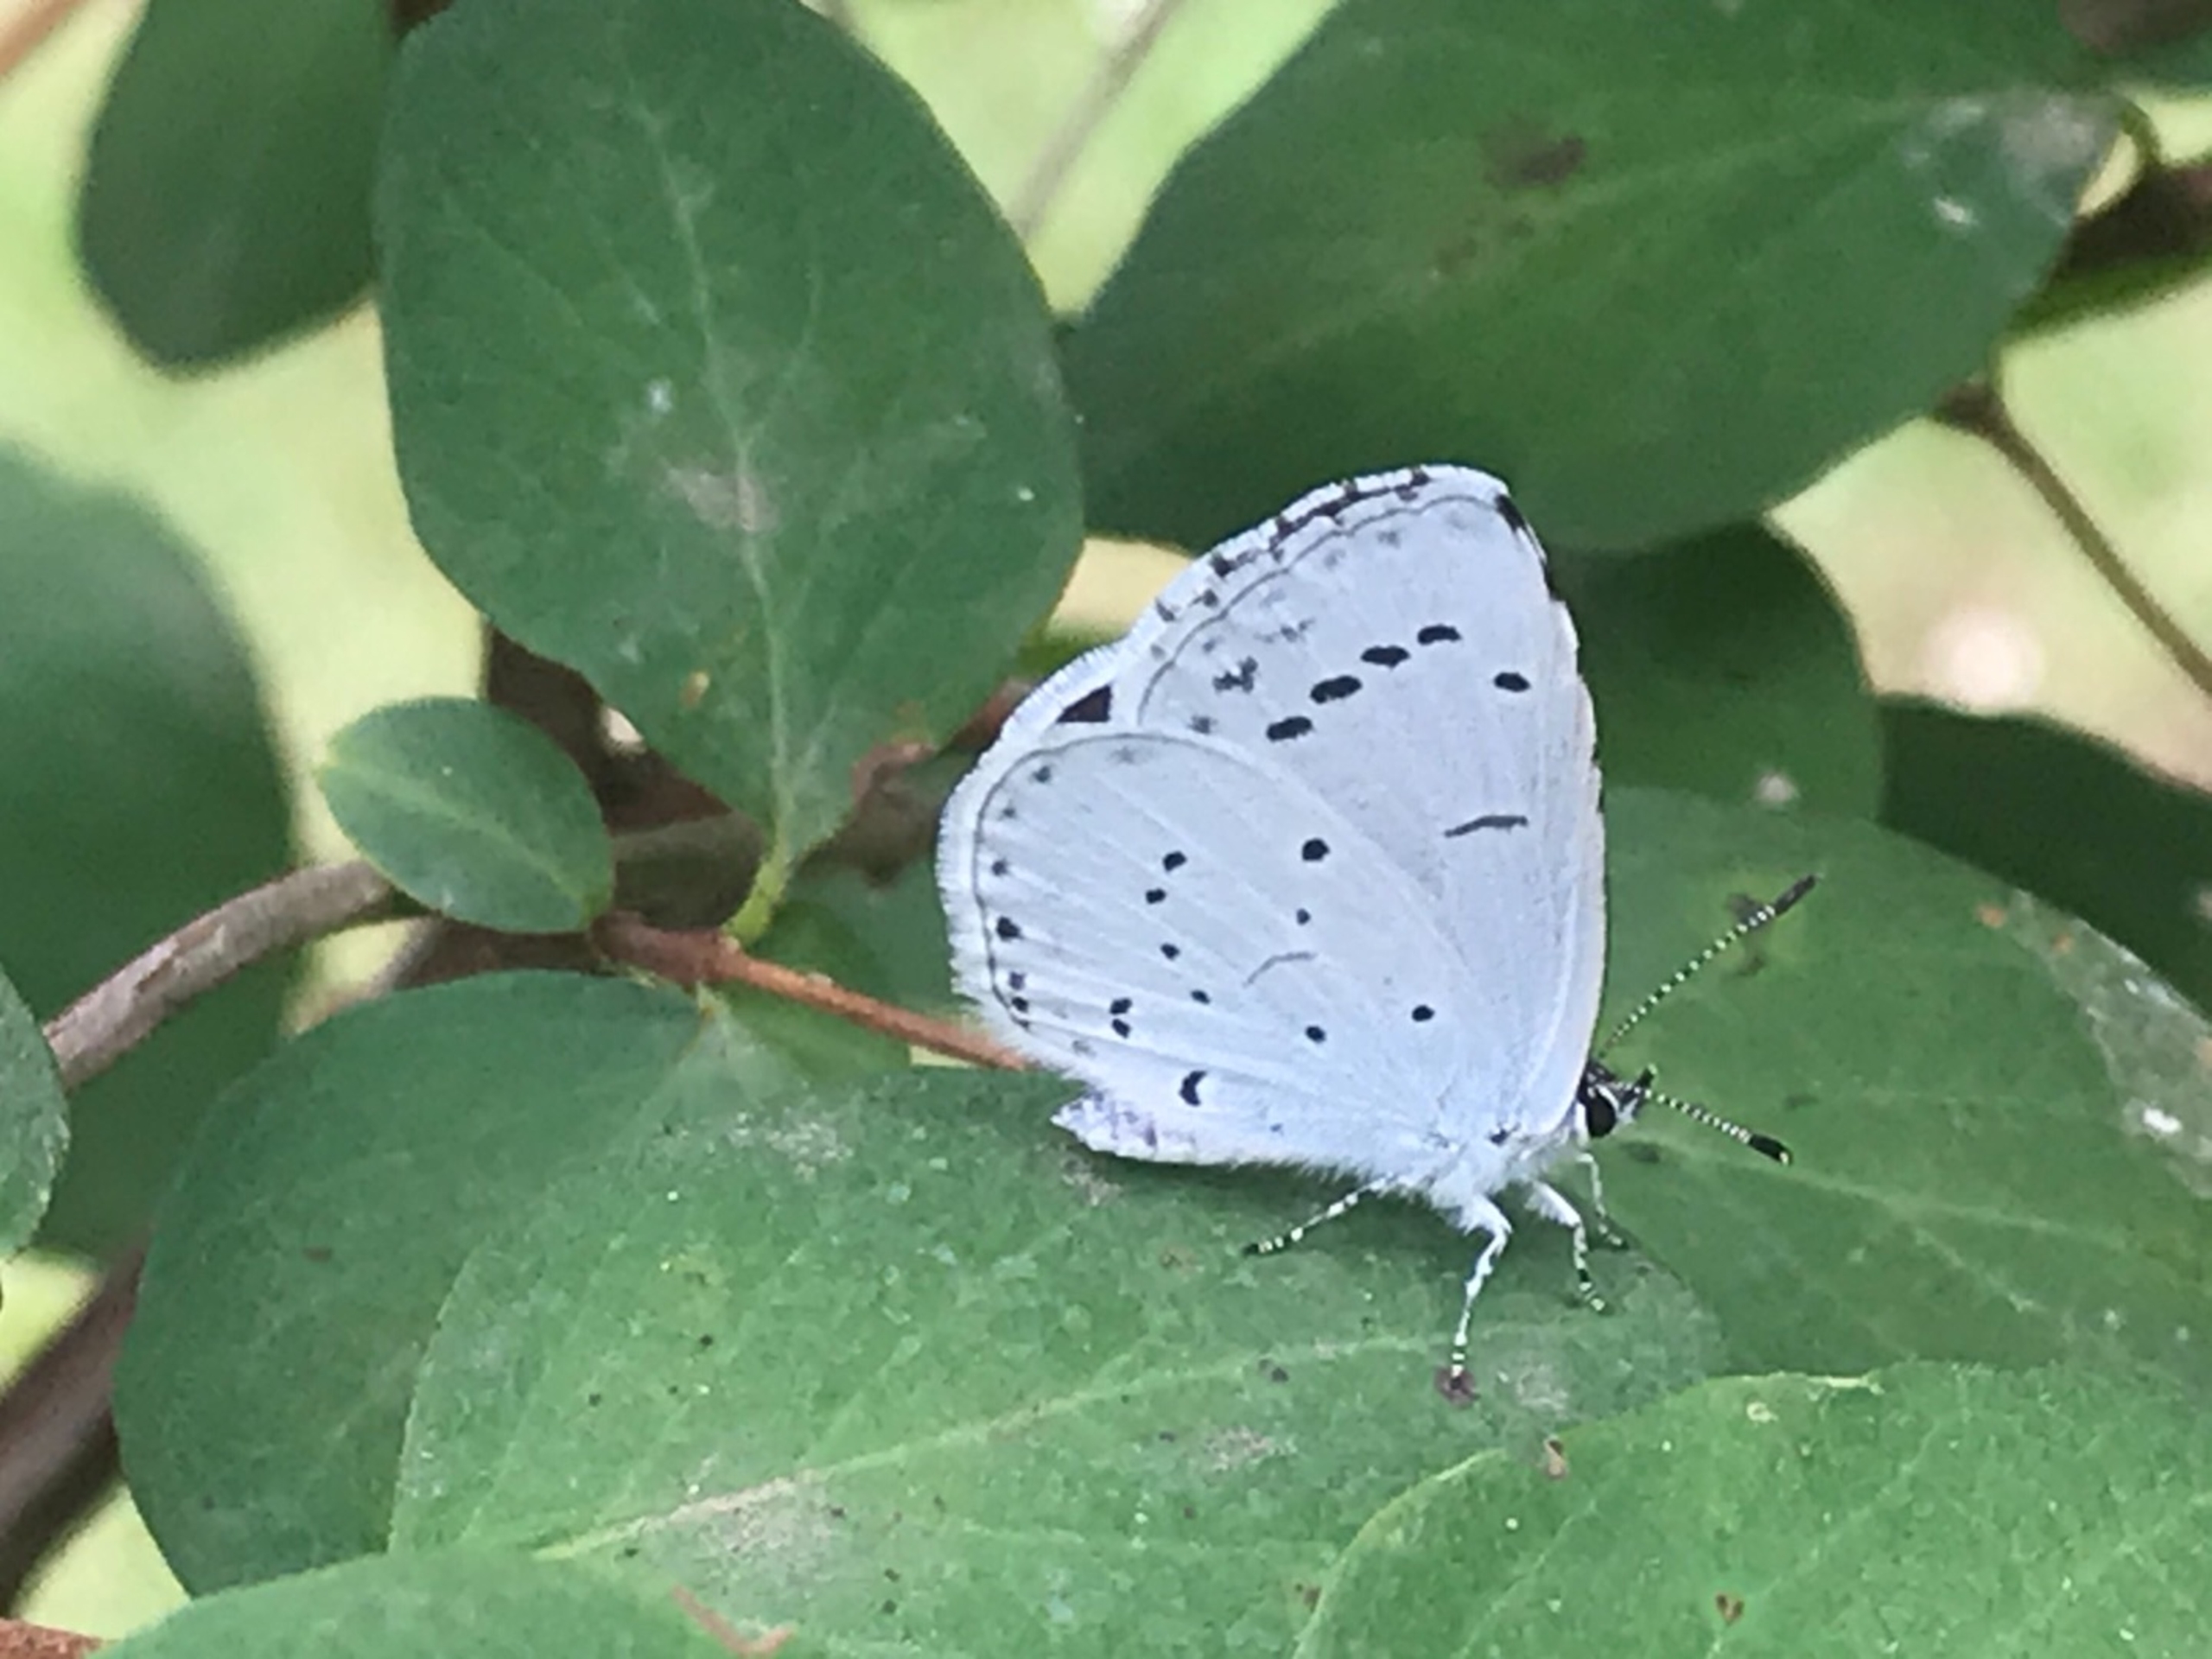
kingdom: Animalia
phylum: Arthropoda
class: Insecta
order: Lepidoptera
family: Lycaenidae
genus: Celastrina
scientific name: Celastrina argiolus
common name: Skovblåfugl
